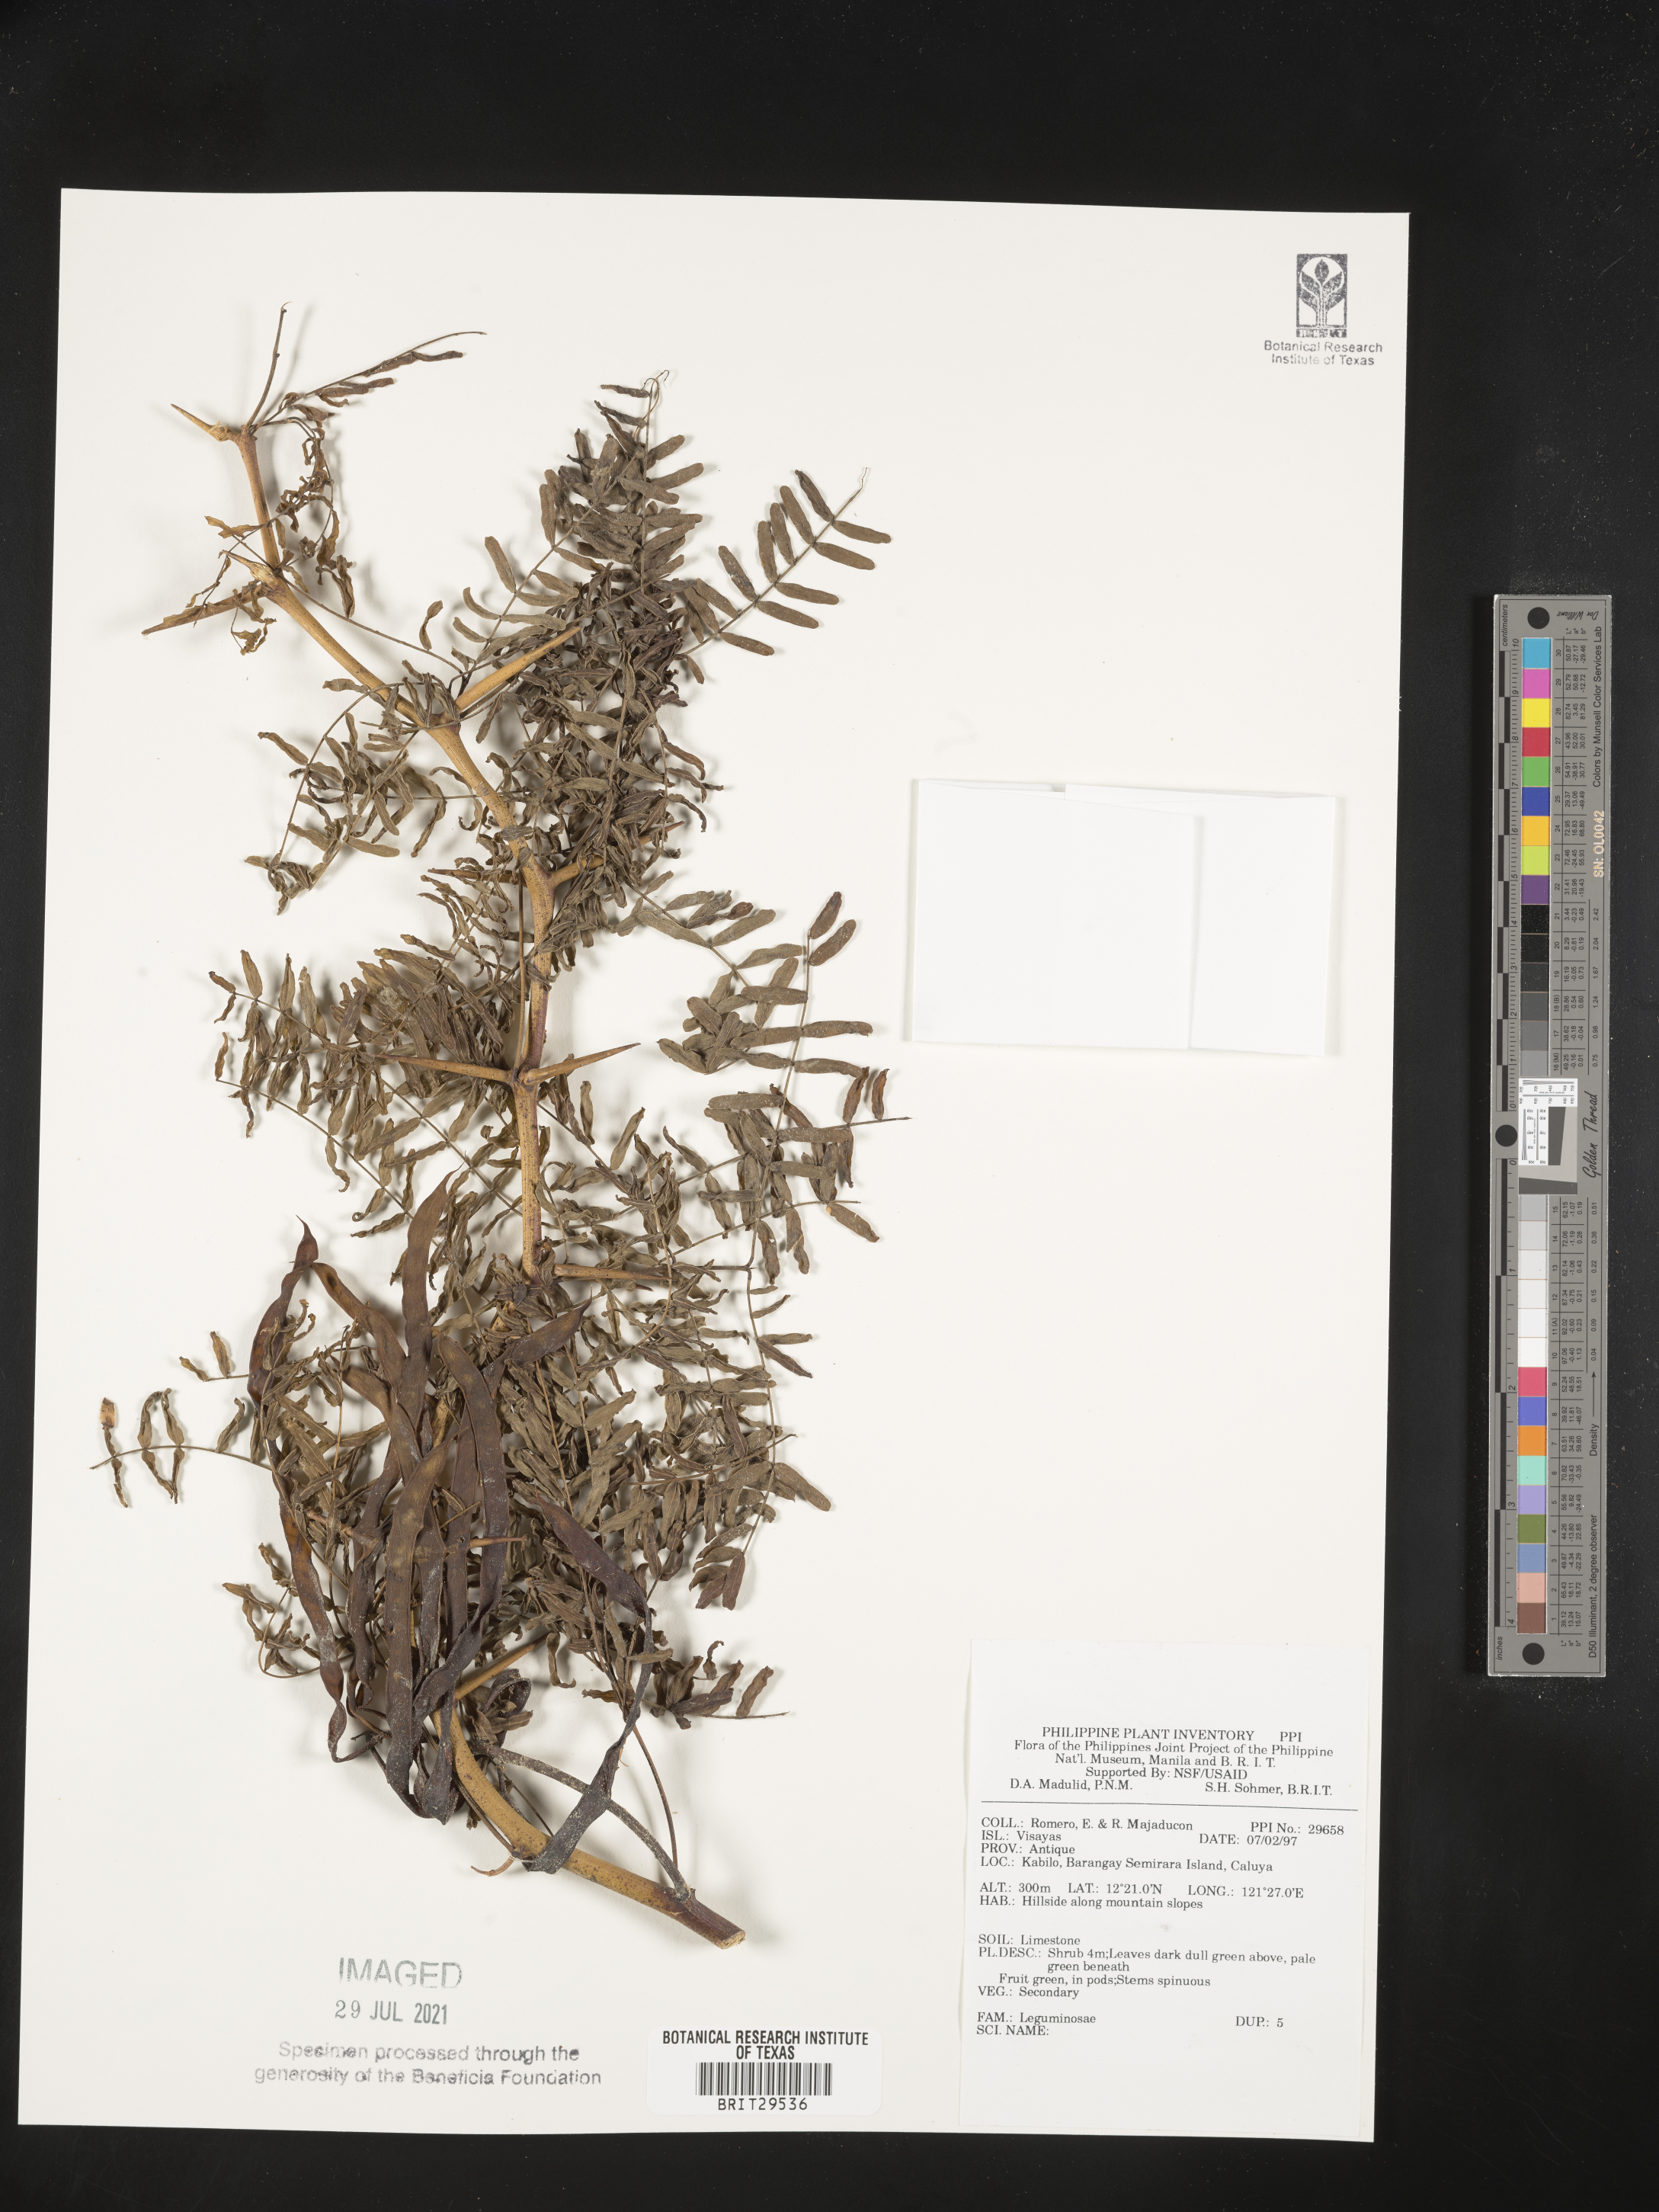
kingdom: Plantae
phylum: Tracheophyta
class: Magnoliopsida
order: Fabales
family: Fabaceae
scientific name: Fabaceae
